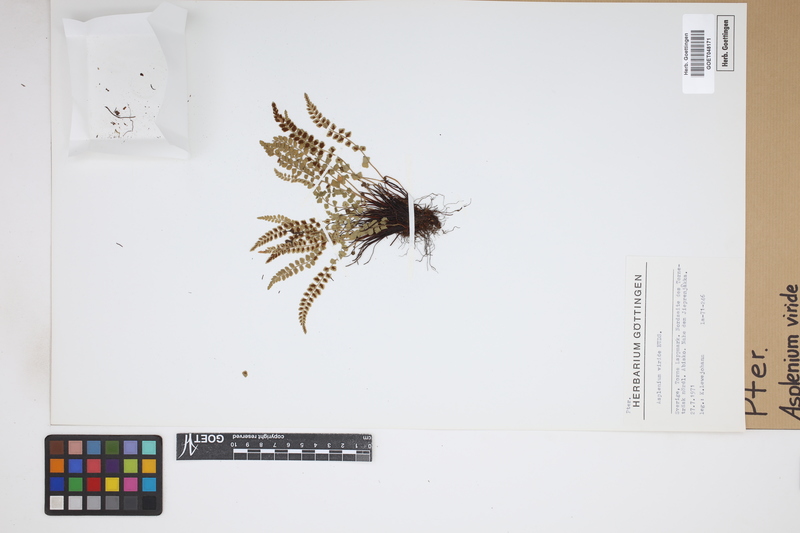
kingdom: Plantae
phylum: Tracheophyta
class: Polypodiopsida
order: Polypodiales
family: Aspleniaceae
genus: Asplenium
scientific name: Asplenium viride
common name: Green spleenwort
